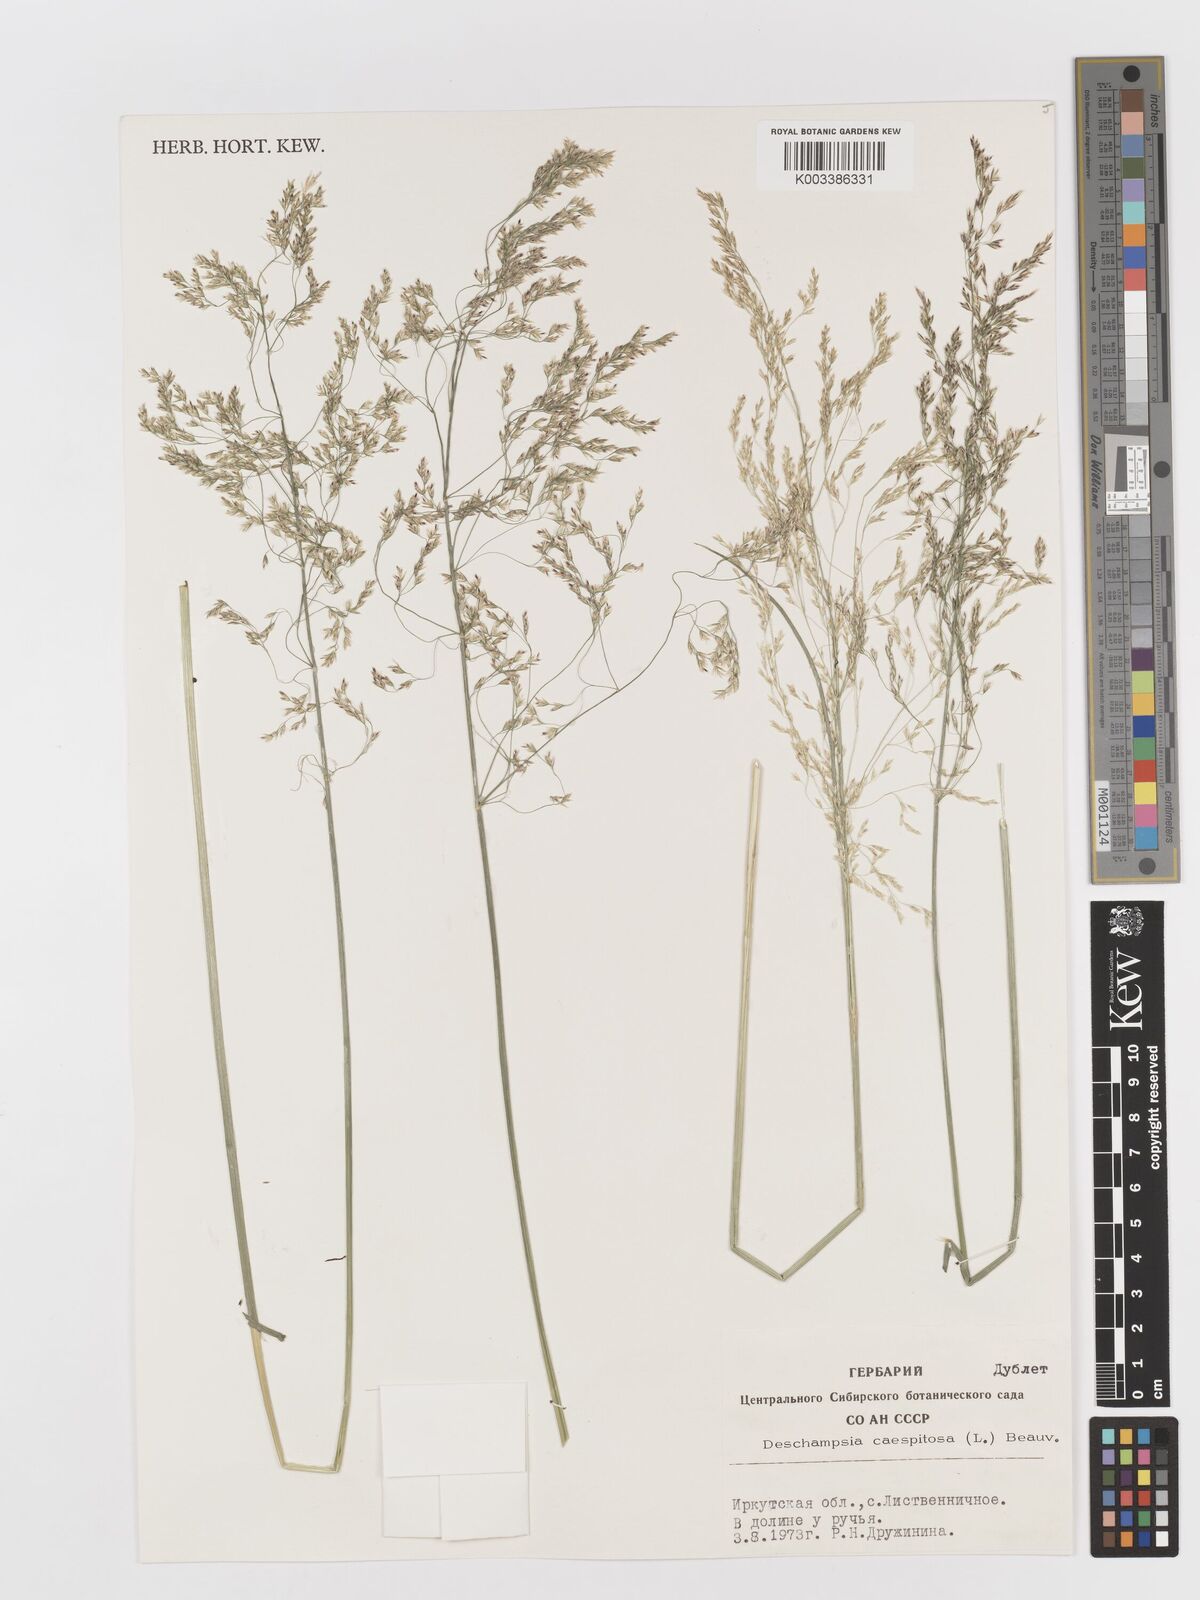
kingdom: Plantae
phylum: Tracheophyta
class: Liliopsida
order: Poales
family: Poaceae
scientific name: Poaceae
